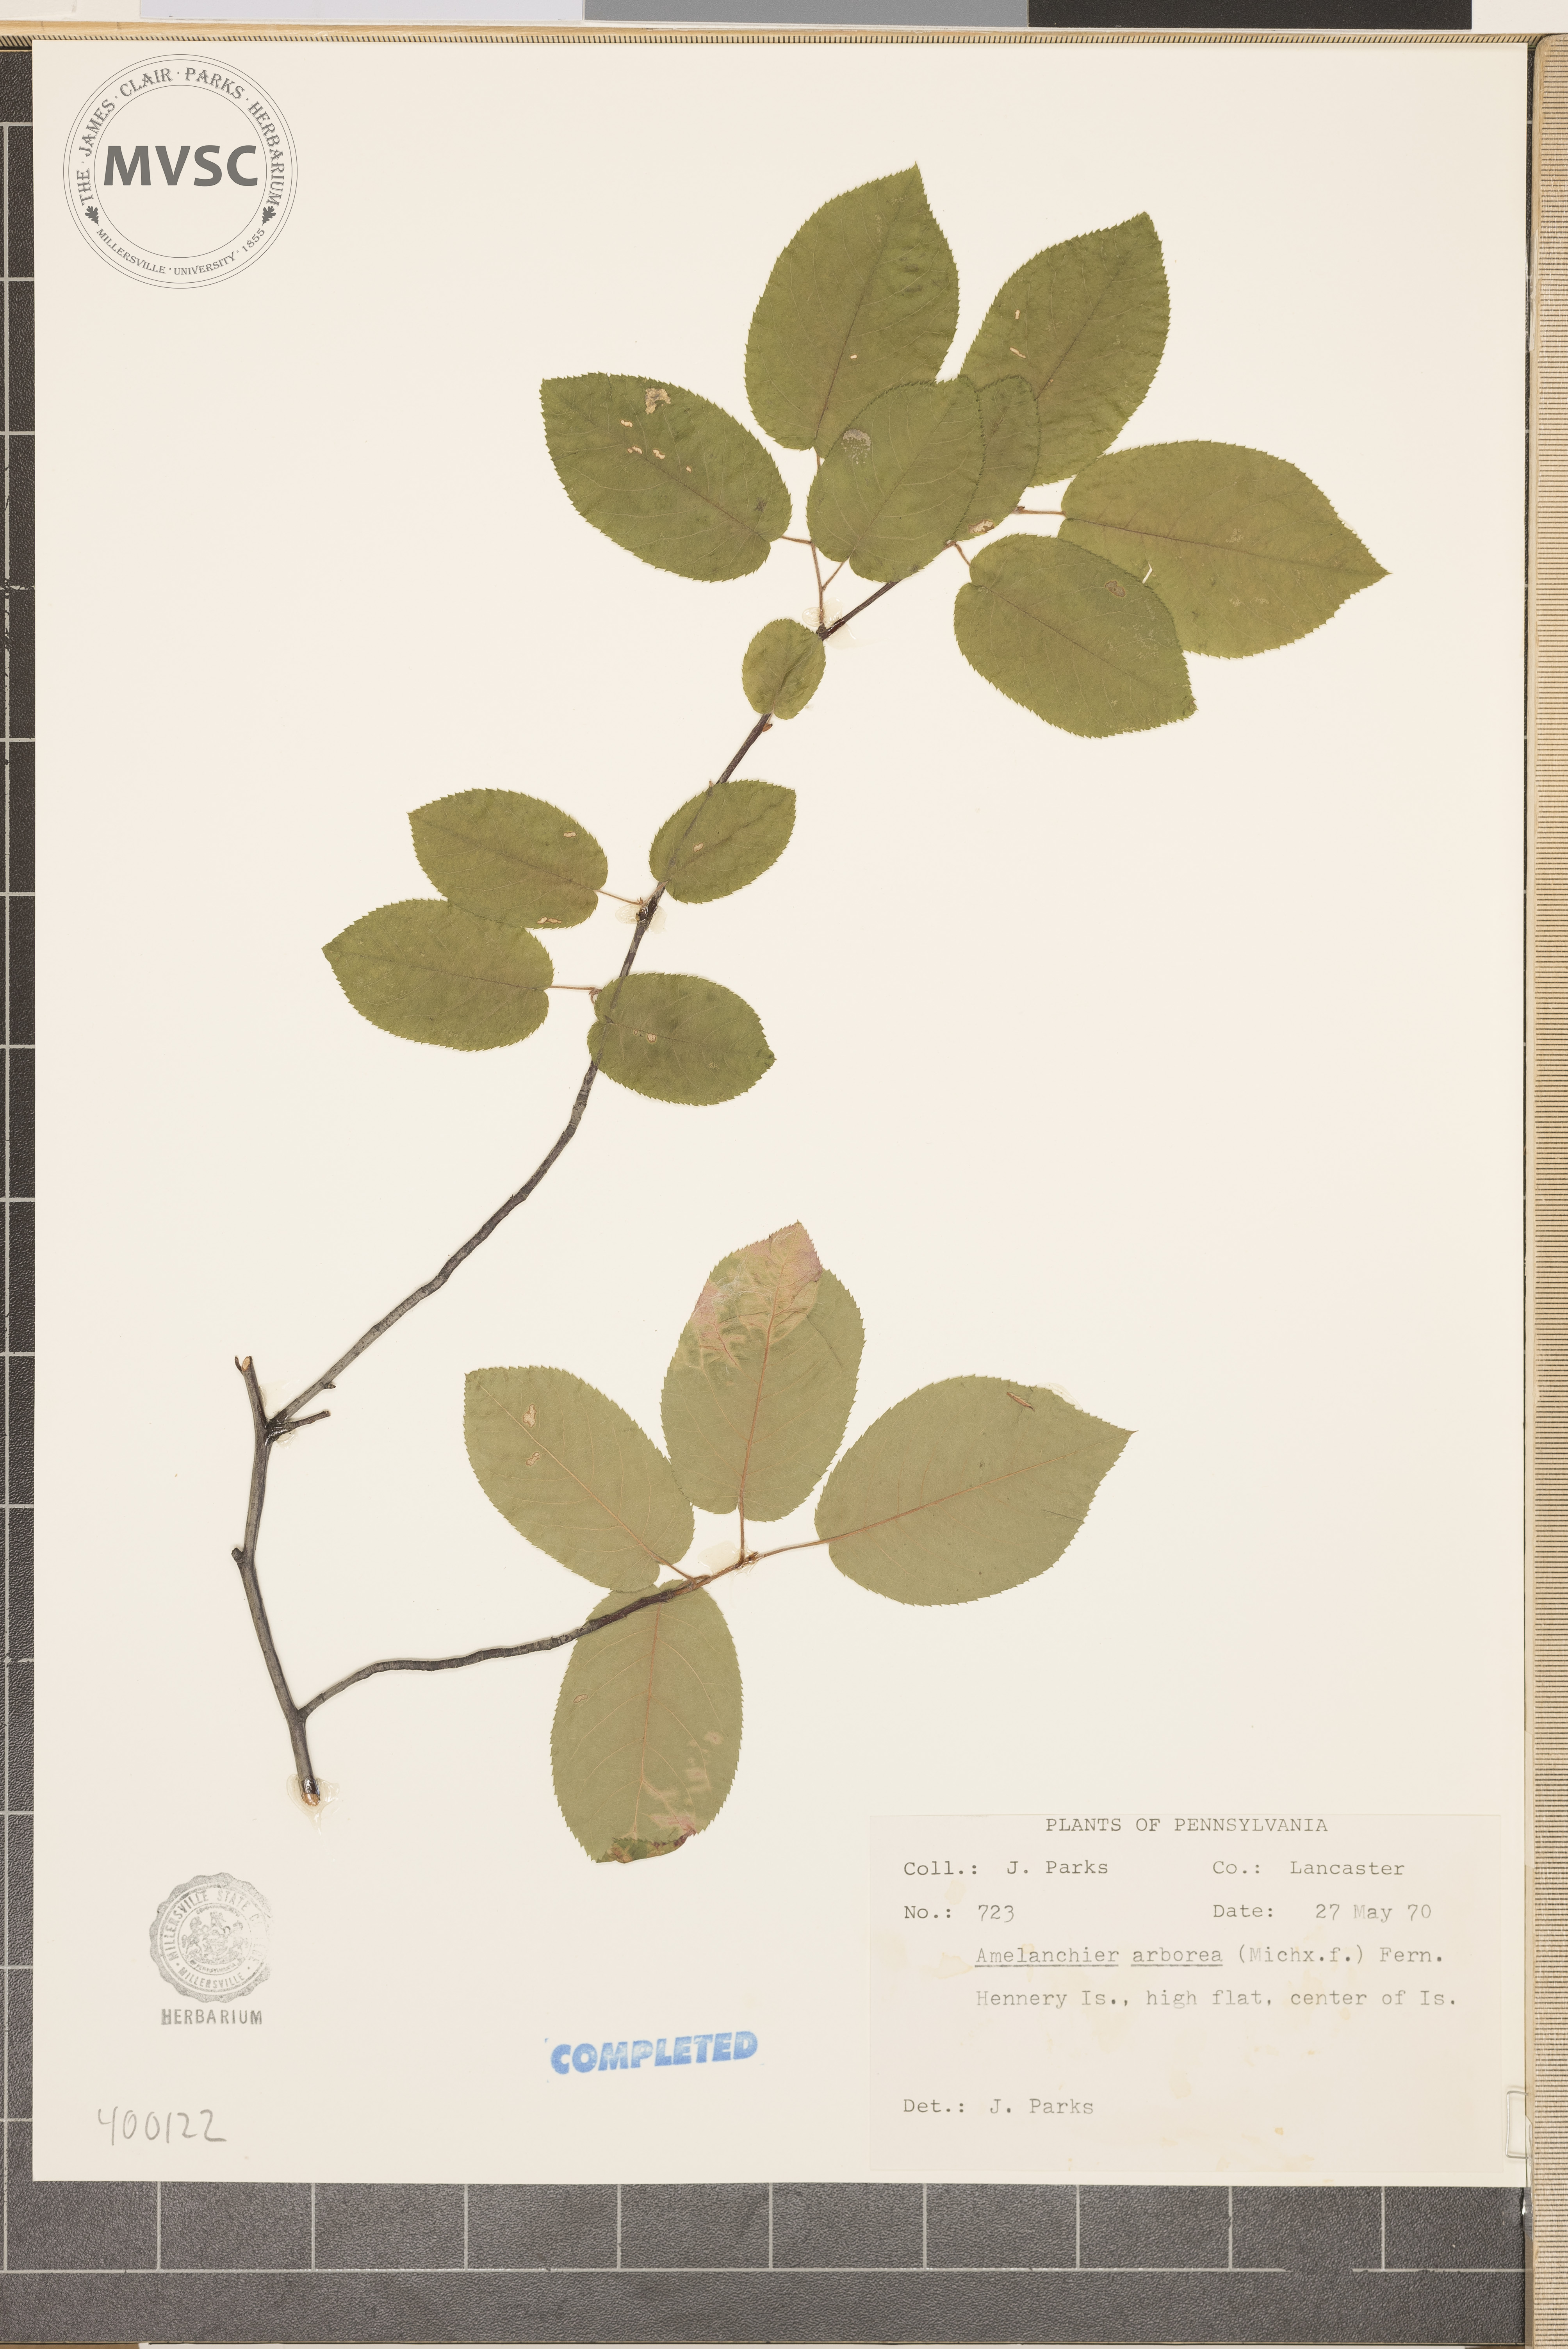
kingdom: Plantae
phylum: Tracheophyta
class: Magnoliopsida
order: Rosales
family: Rosaceae
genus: Amelanchier
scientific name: Amelanchier arborea
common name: serviceberry
